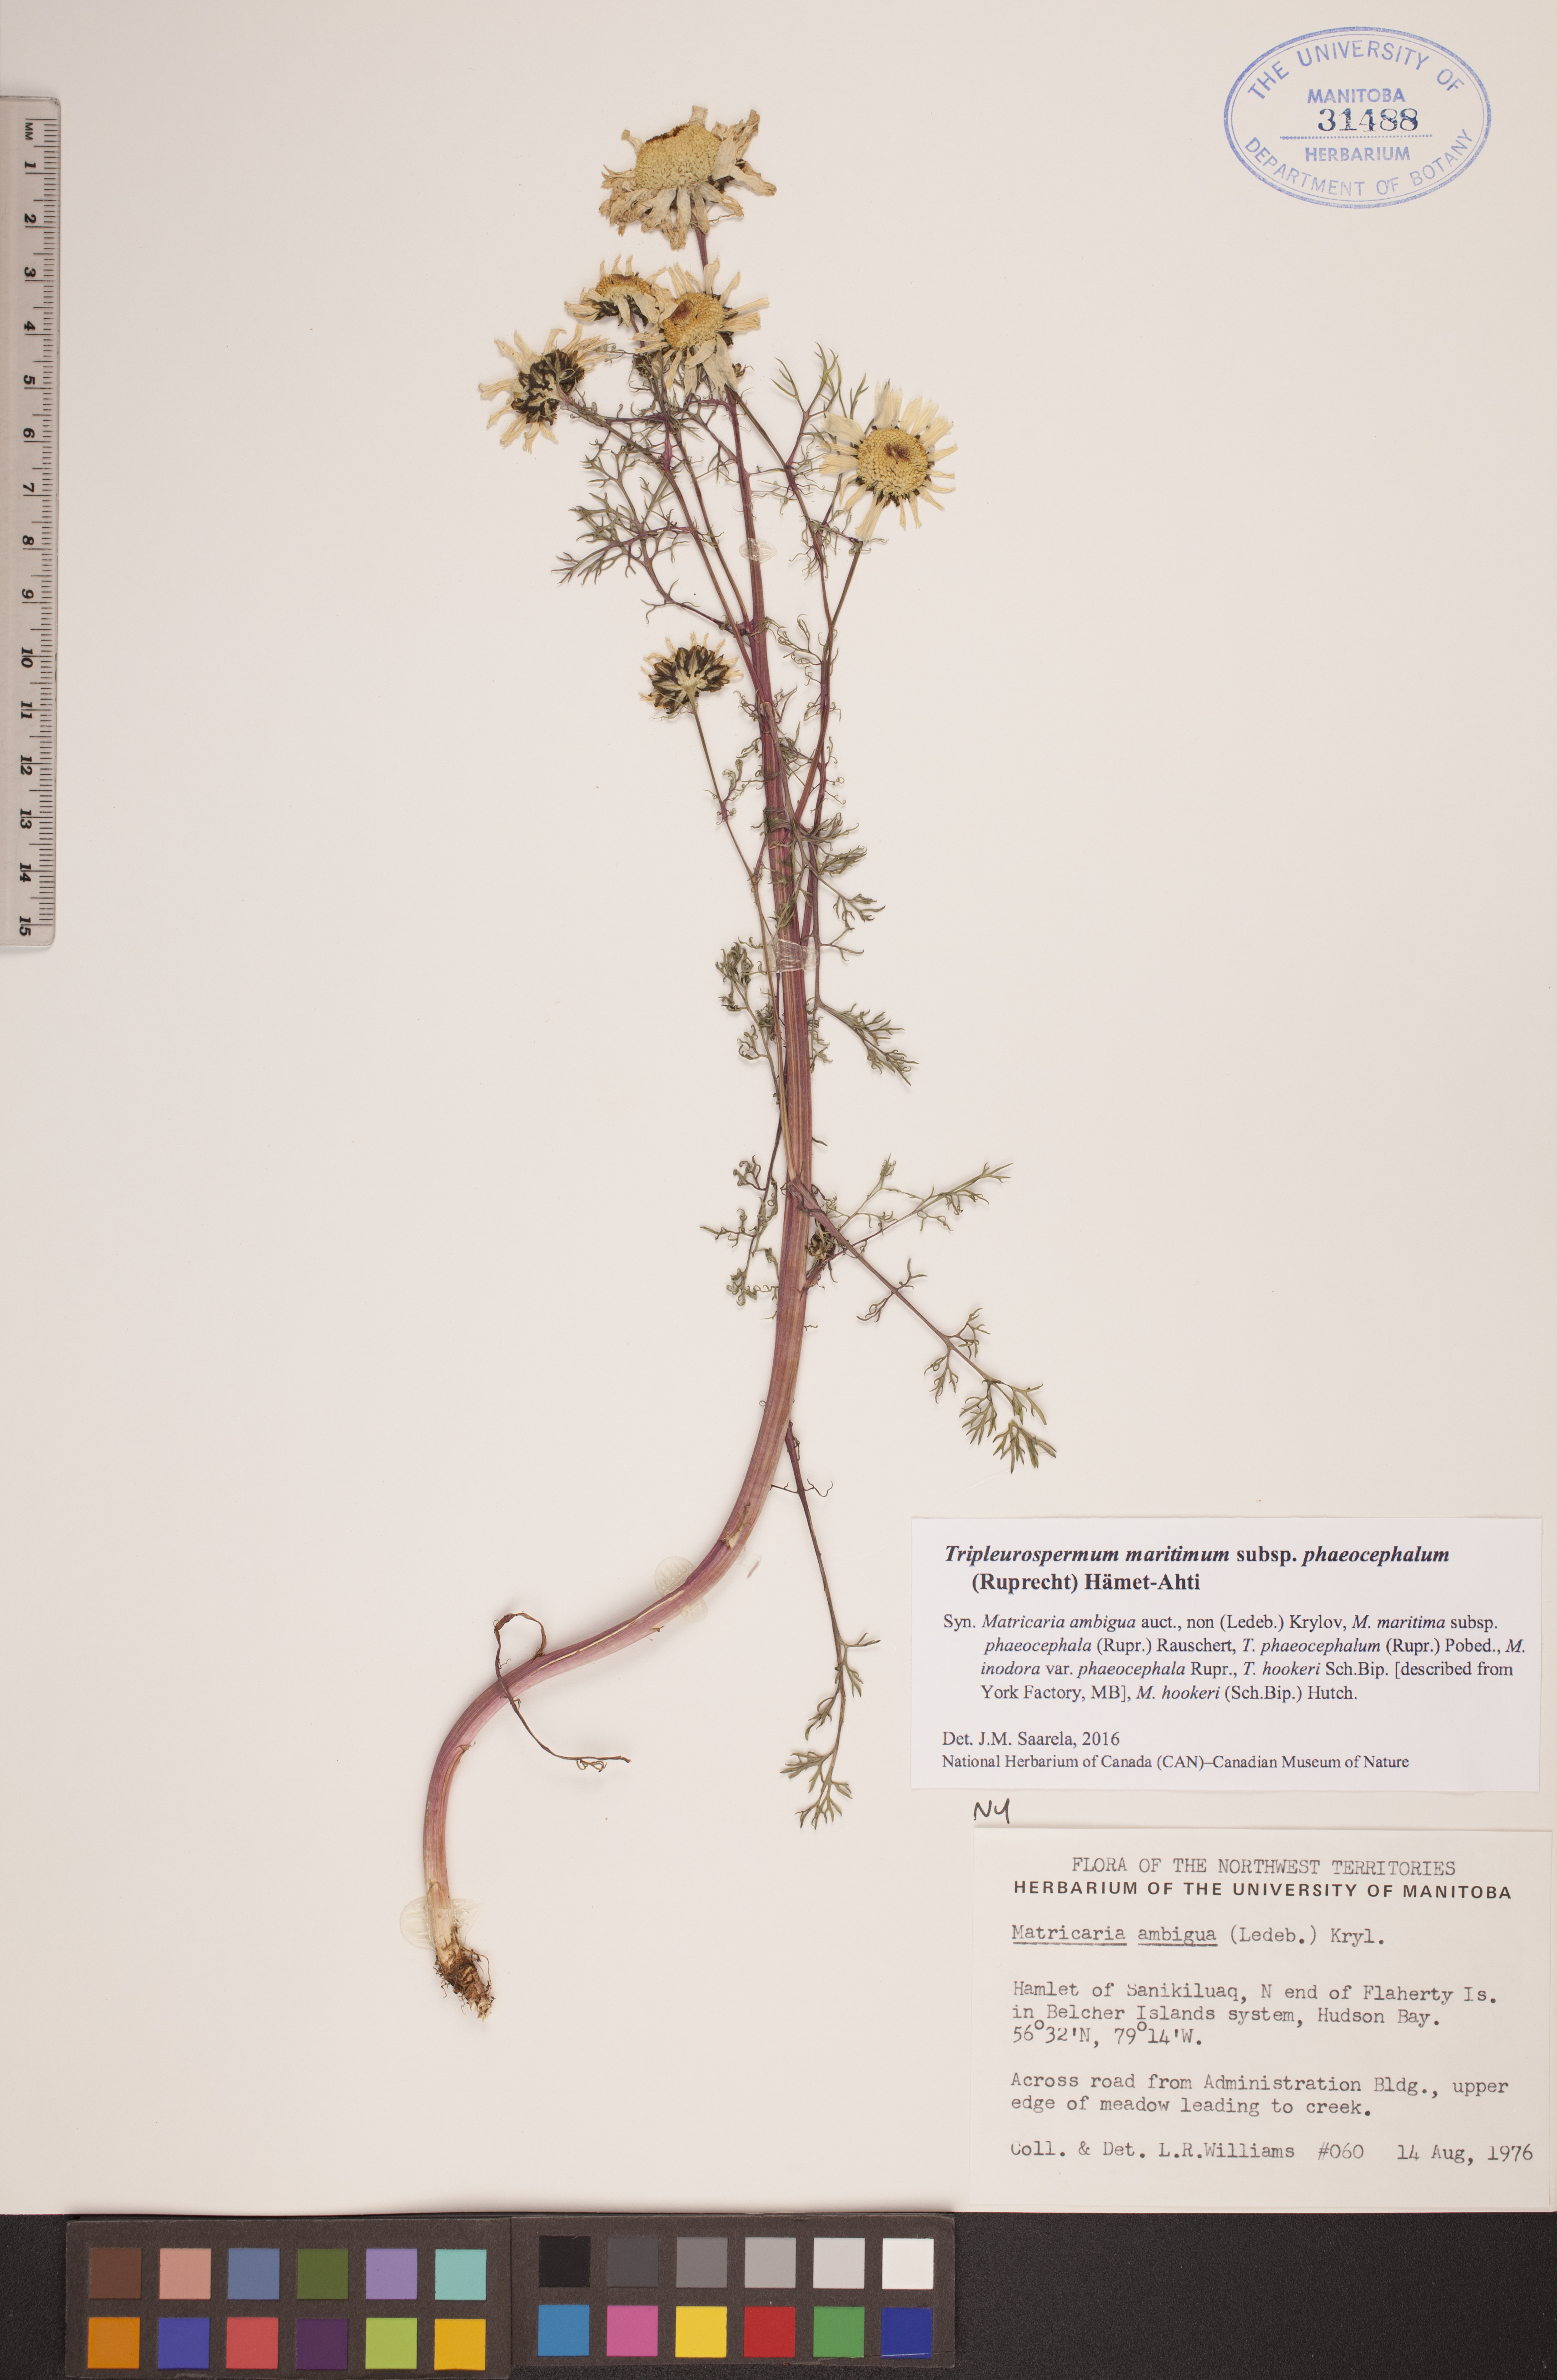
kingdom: Plantae
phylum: Tracheophyta
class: Magnoliopsida
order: Asterales
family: Asteraceae
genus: Tripleurospermum
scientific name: Tripleurospermum hookeri
